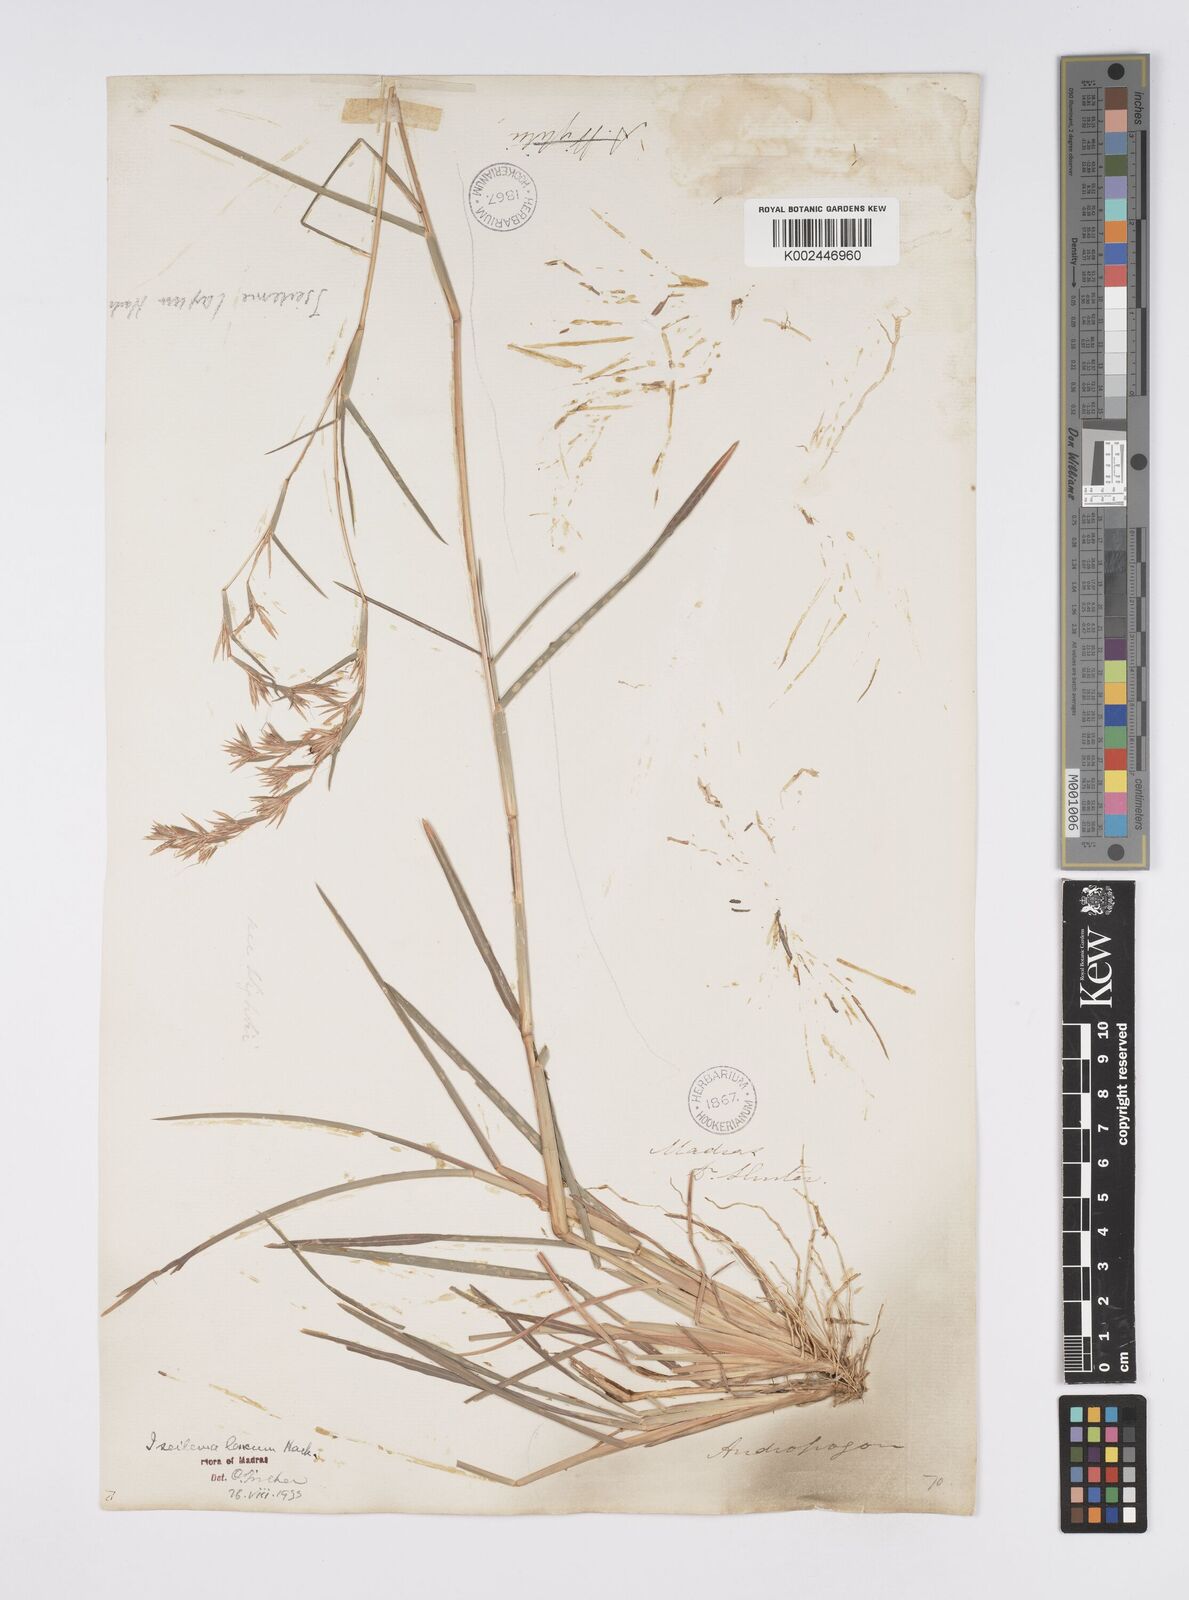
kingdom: Plantae
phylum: Tracheophyta
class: Liliopsida
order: Poales
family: Poaceae
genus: Iseilema
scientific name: Iseilema prostratum
